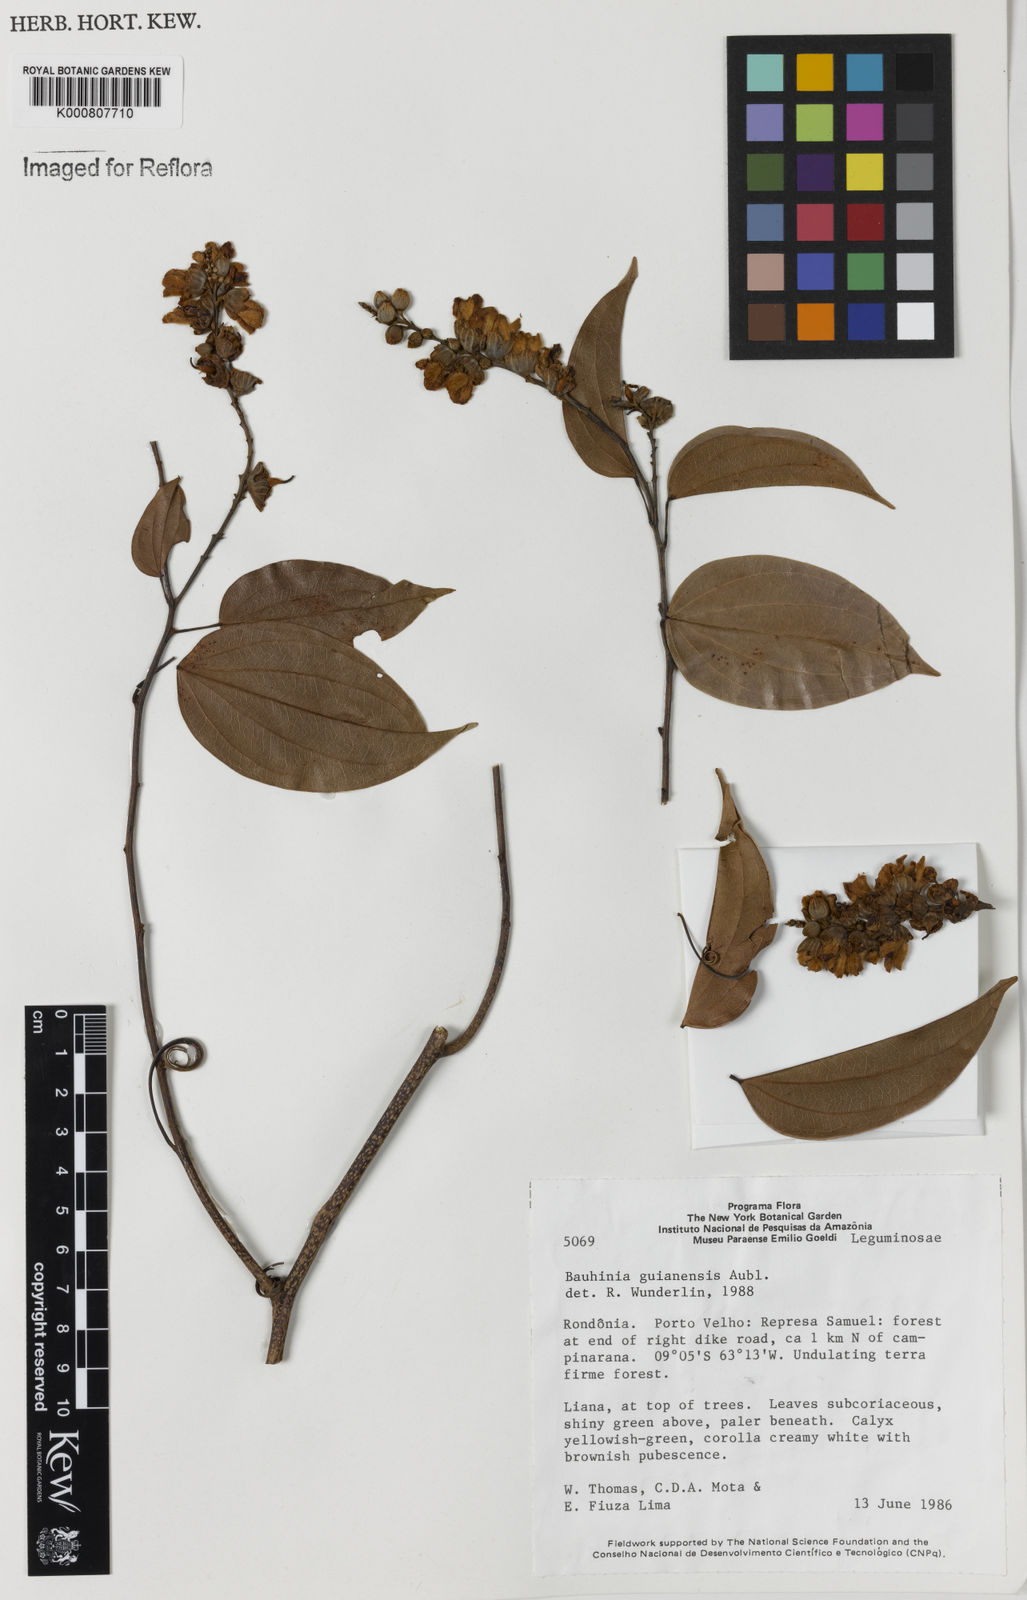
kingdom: Plantae
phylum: Tracheophyta
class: Magnoliopsida
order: Fabales
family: Fabaceae
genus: Schnella
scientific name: Schnella guianensis
